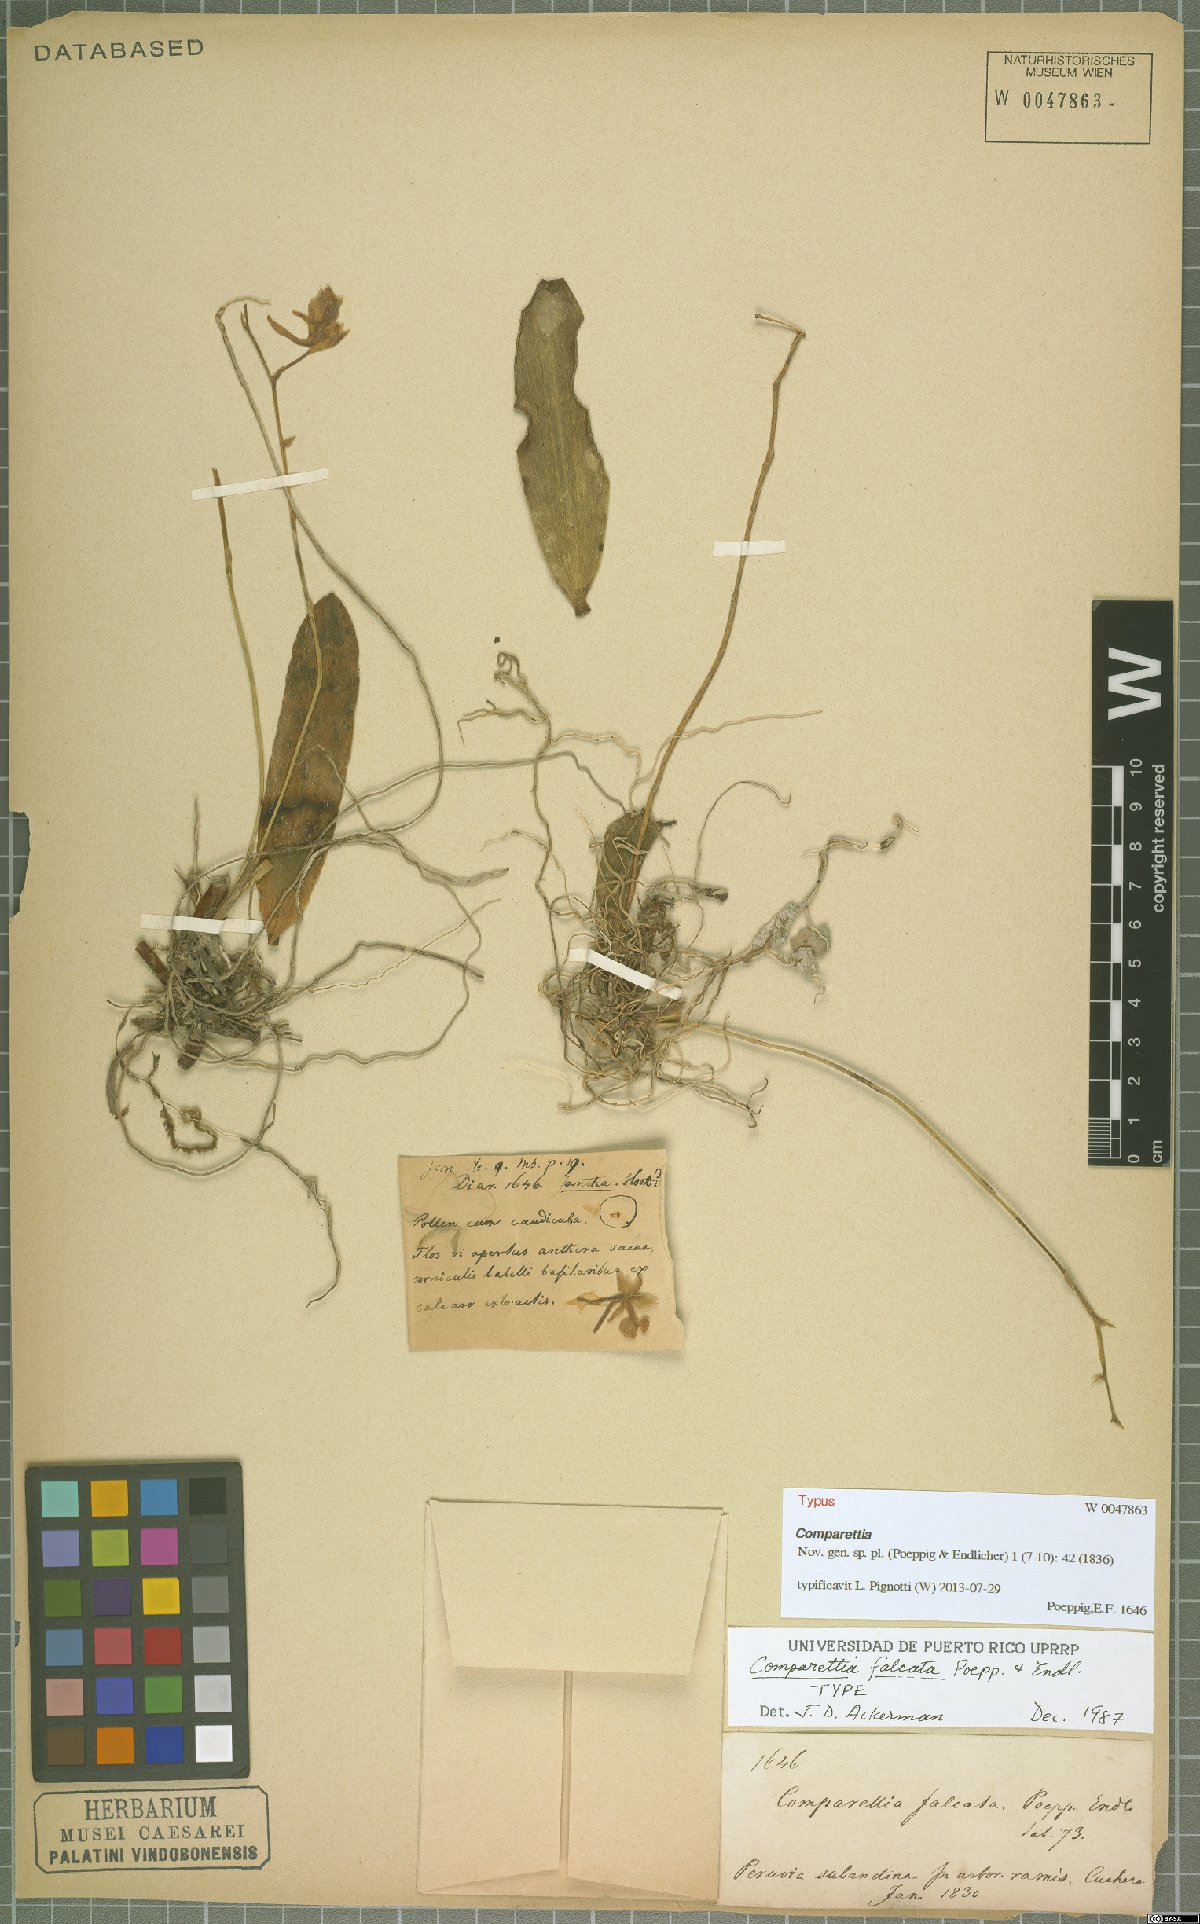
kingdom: Plantae
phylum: Tracheophyta
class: Liliopsida
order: Asparagales
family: Orchidaceae
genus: Comparettia
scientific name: Comparettia falcata
